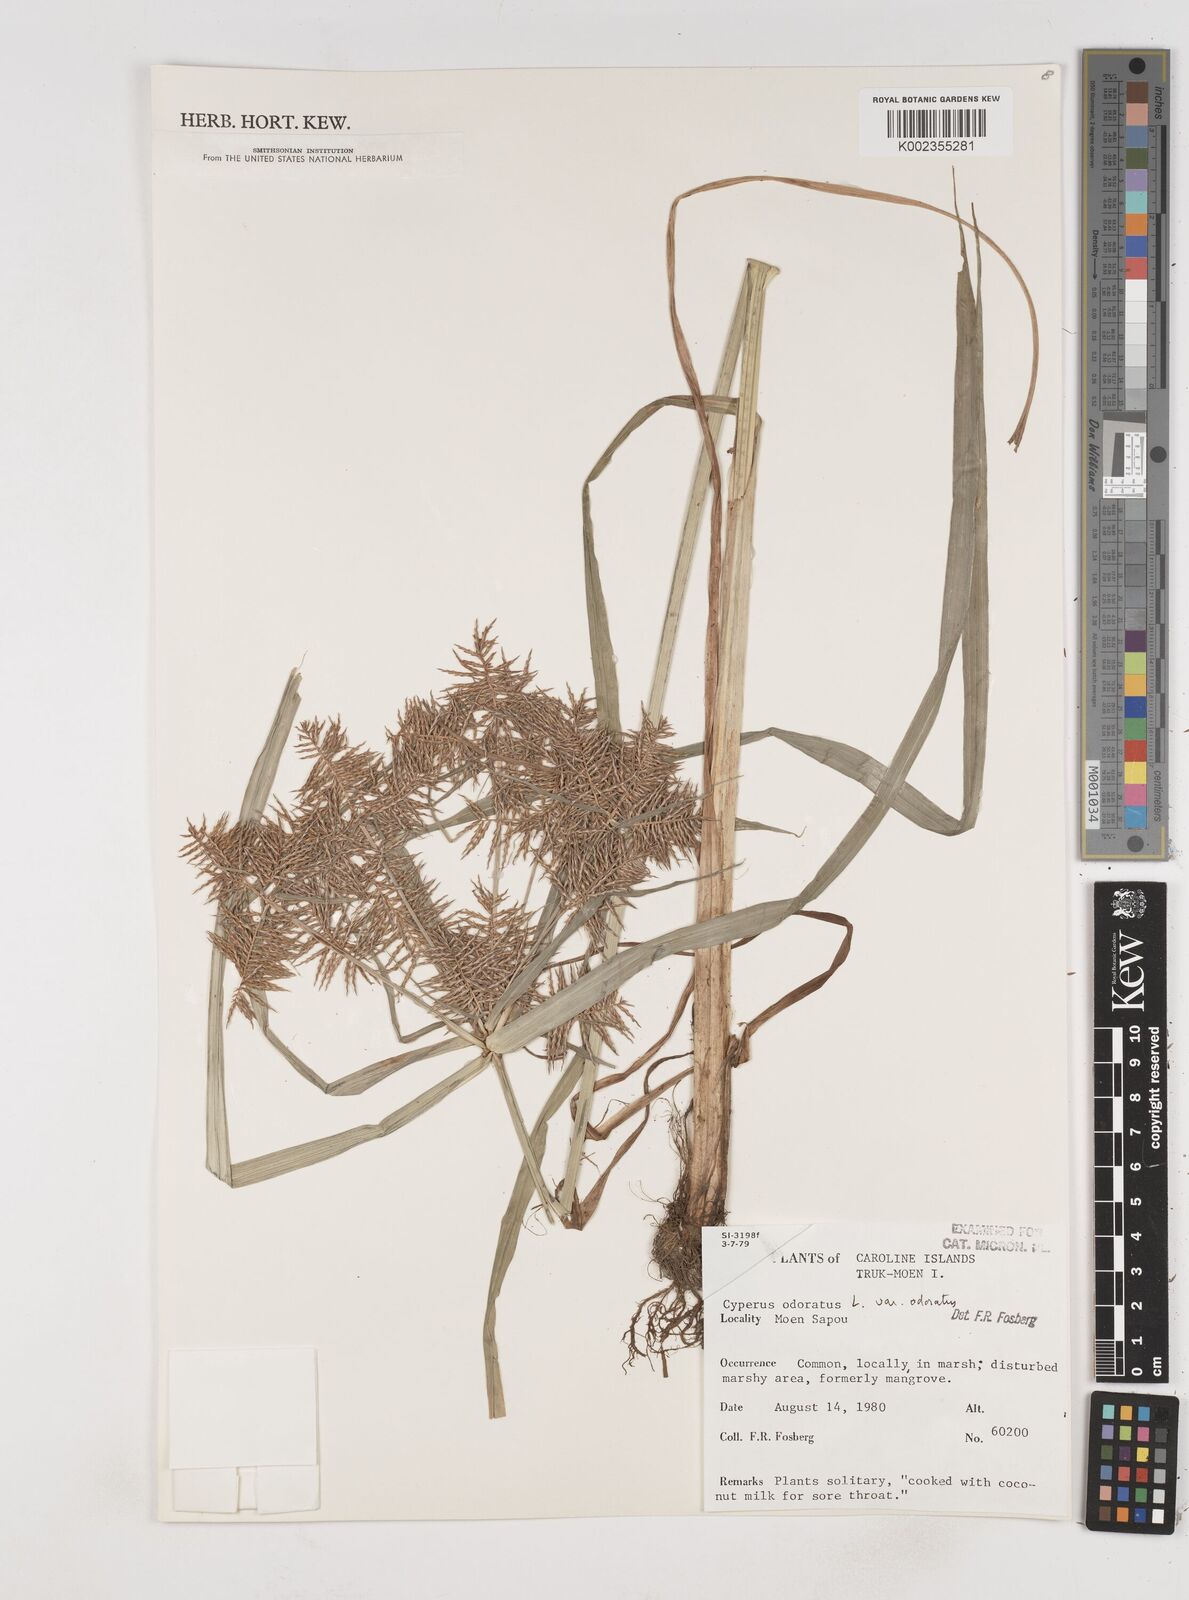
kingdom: Plantae
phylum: Tracheophyta
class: Liliopsida
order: Poales
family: Cyperaceae
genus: Cyperus
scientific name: Cyperus odoratus
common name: Fragrant flatsedge
